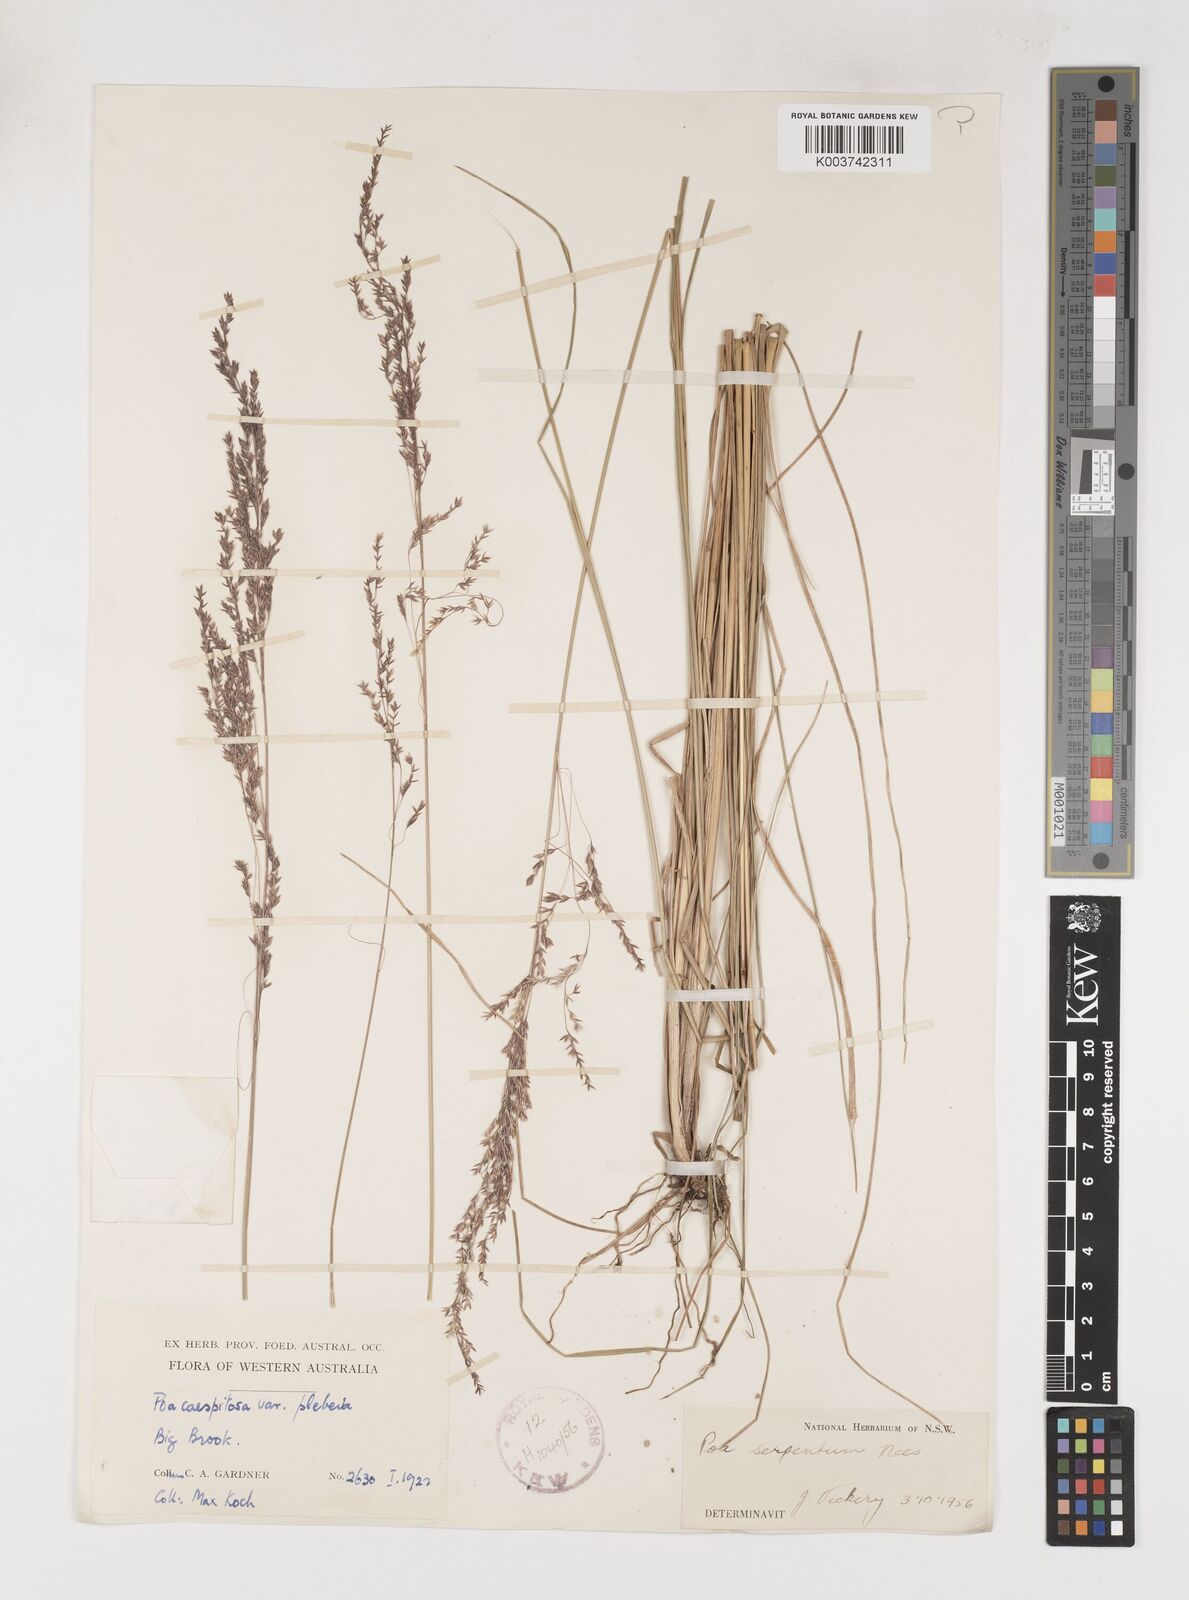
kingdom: Plantae
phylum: Tracheophyta
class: Liliopsida
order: Poales
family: Poaceae
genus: Poa
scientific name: Poa porphyroclados
